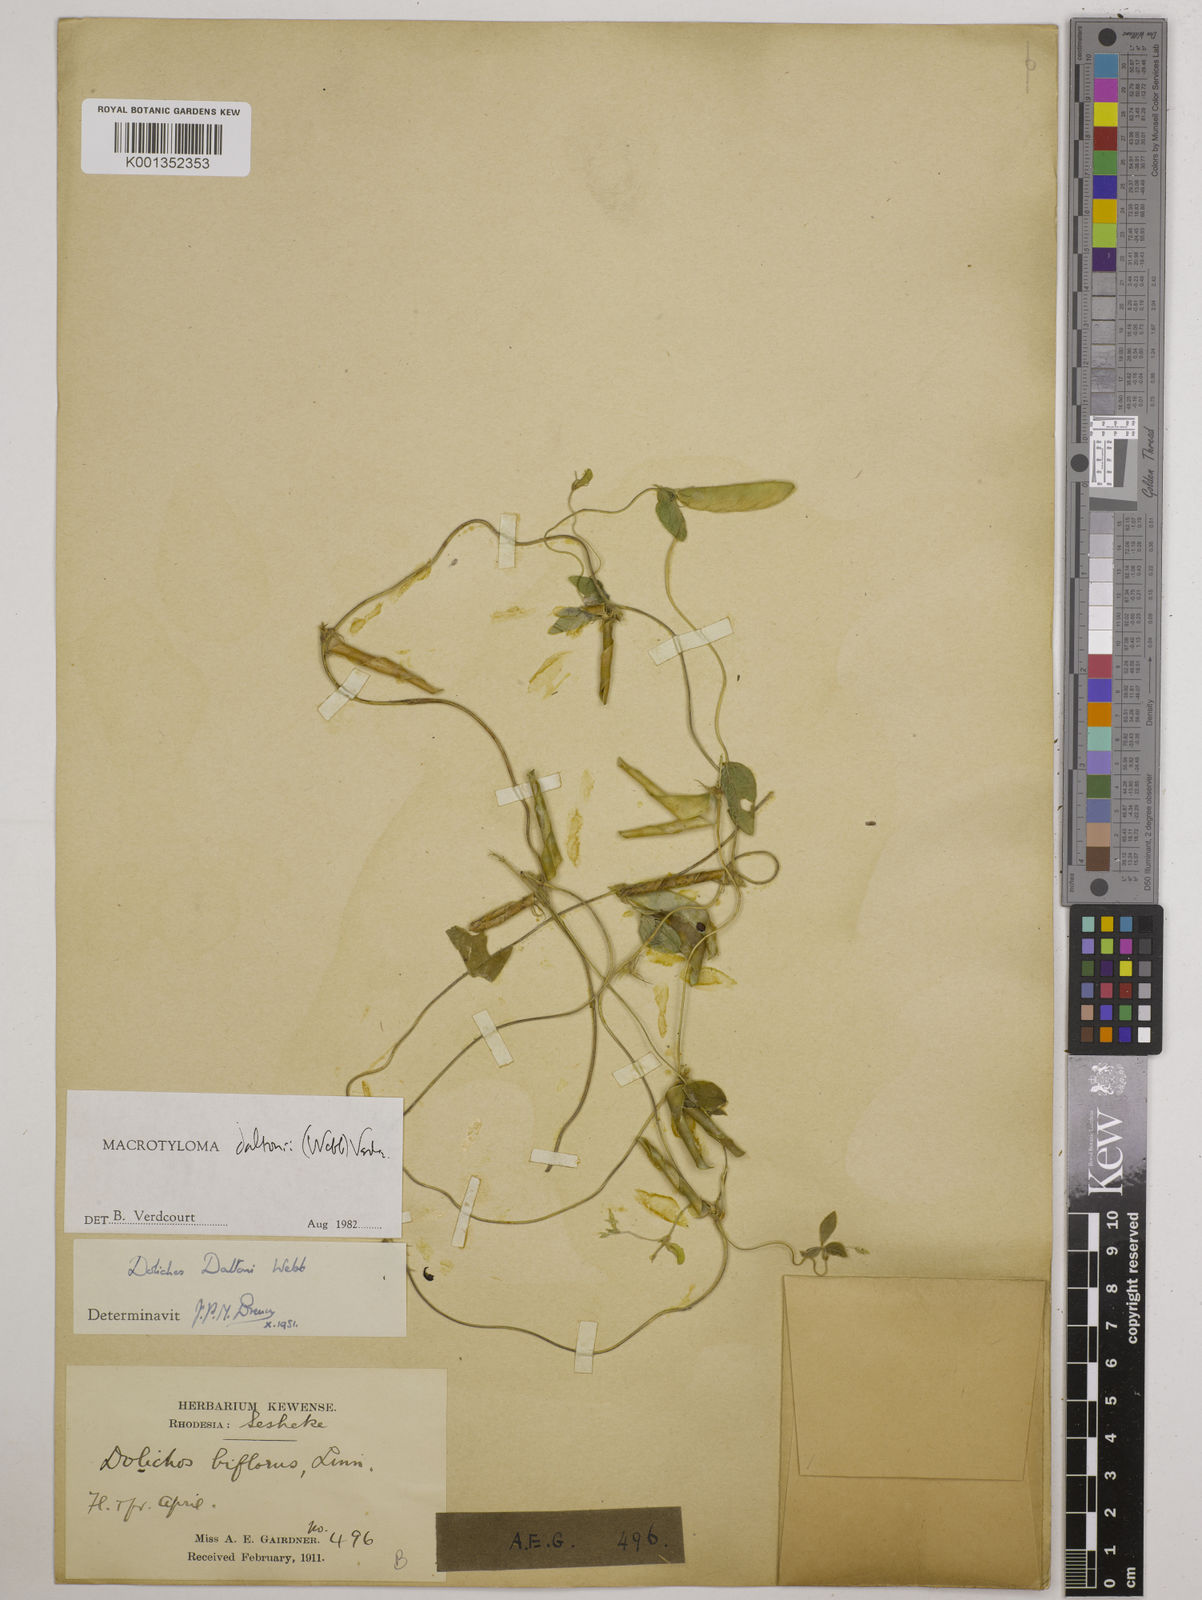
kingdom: Plantae
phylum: Tracheophyta
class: Magnoliopsida
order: Fabales
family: Fabaceae
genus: Macrotyloma
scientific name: Macrotyloma daltonii
